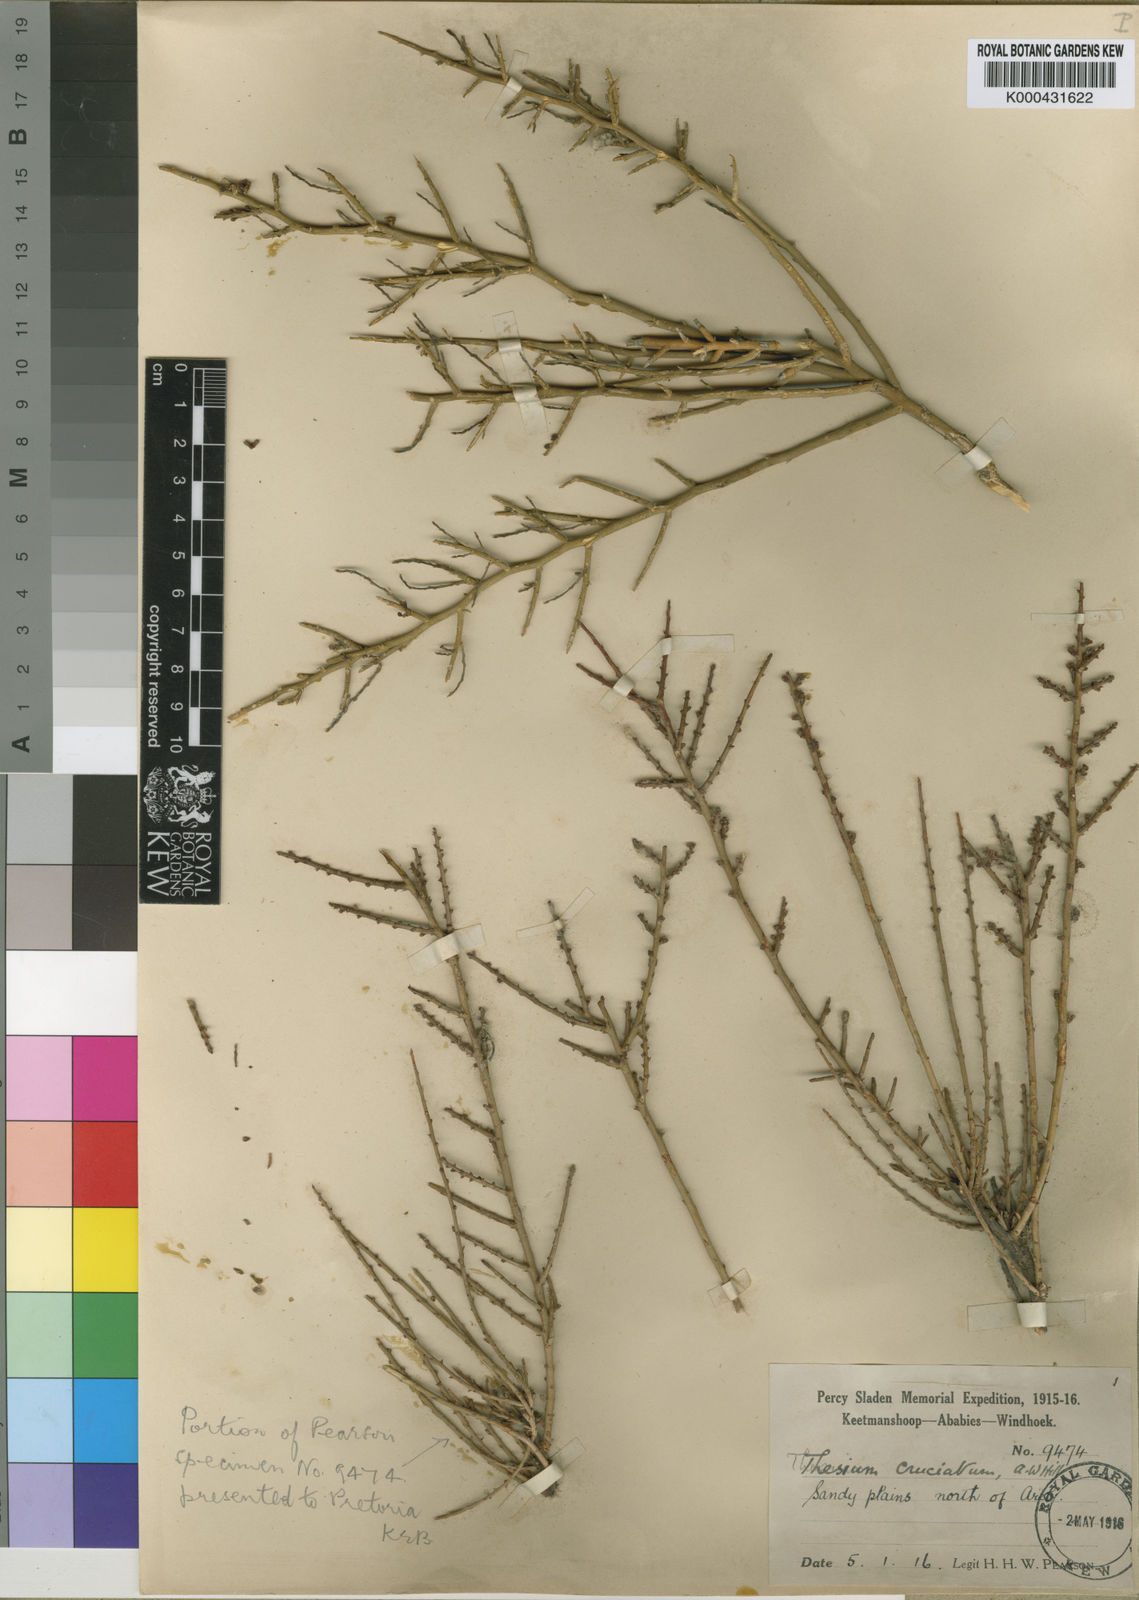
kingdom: Plantae
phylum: Tracheophyta
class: Magnoliopsida
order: Santalales
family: Thesiaceae
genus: Thesium
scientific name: Thesium lacinulatum
